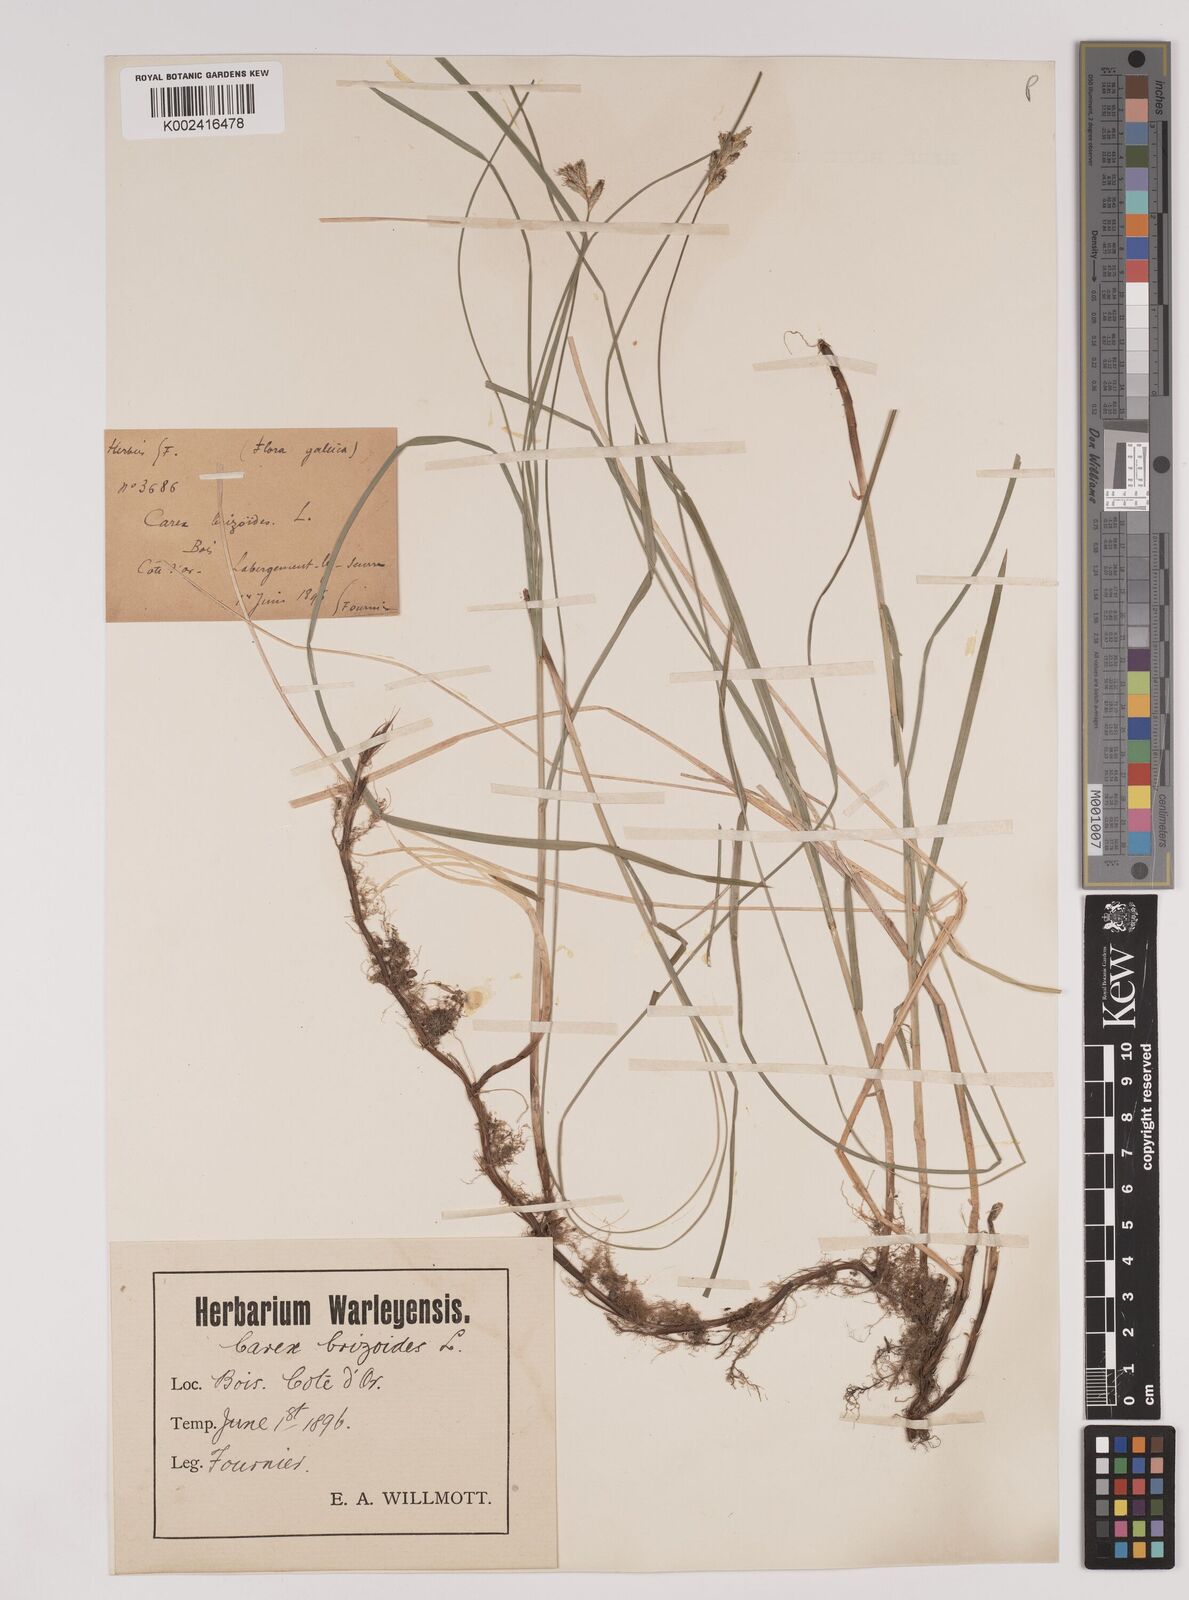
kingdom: Plantae
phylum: Tracheophyta
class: Liliopsida
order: Poales
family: Cyperaceae
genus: Carex
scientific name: Carex brizoides
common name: Quaking-grass sedge
